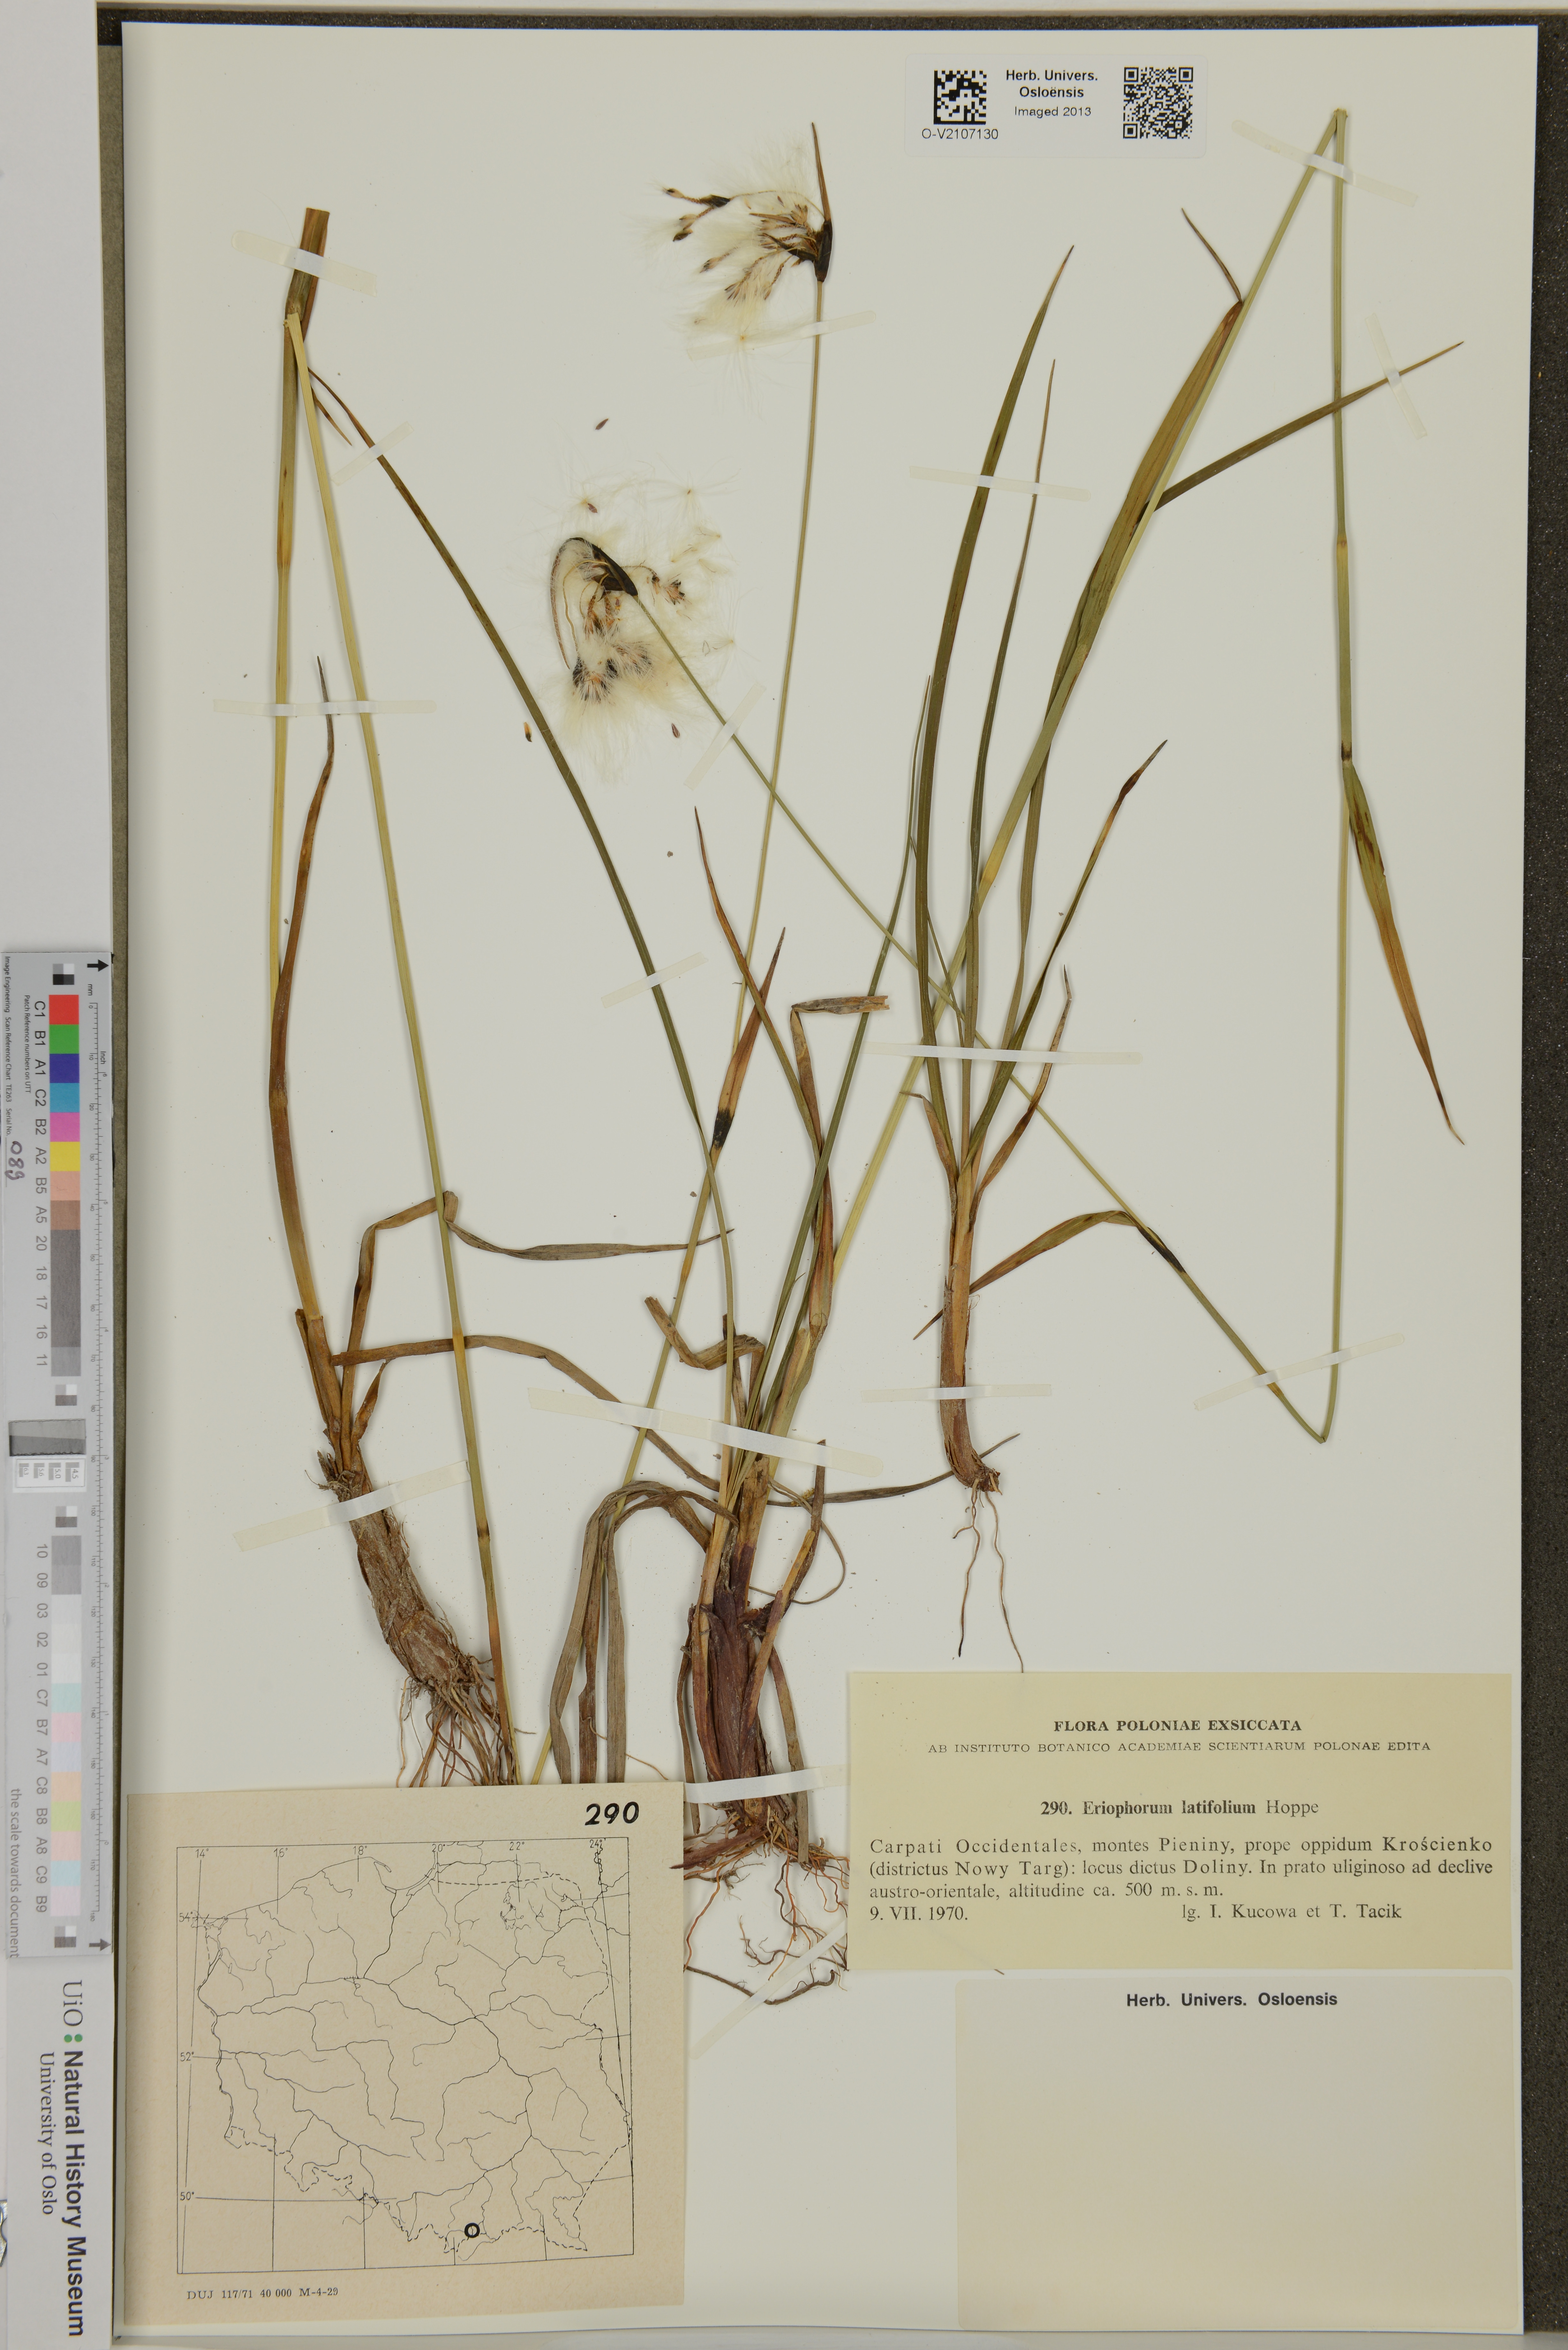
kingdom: Plantae
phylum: Tracheophyta
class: Liliopsida
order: Poales
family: Cyperaceae
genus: Eriophorum
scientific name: Eriophorum latifolium
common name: Broad-leaved cottongrass
